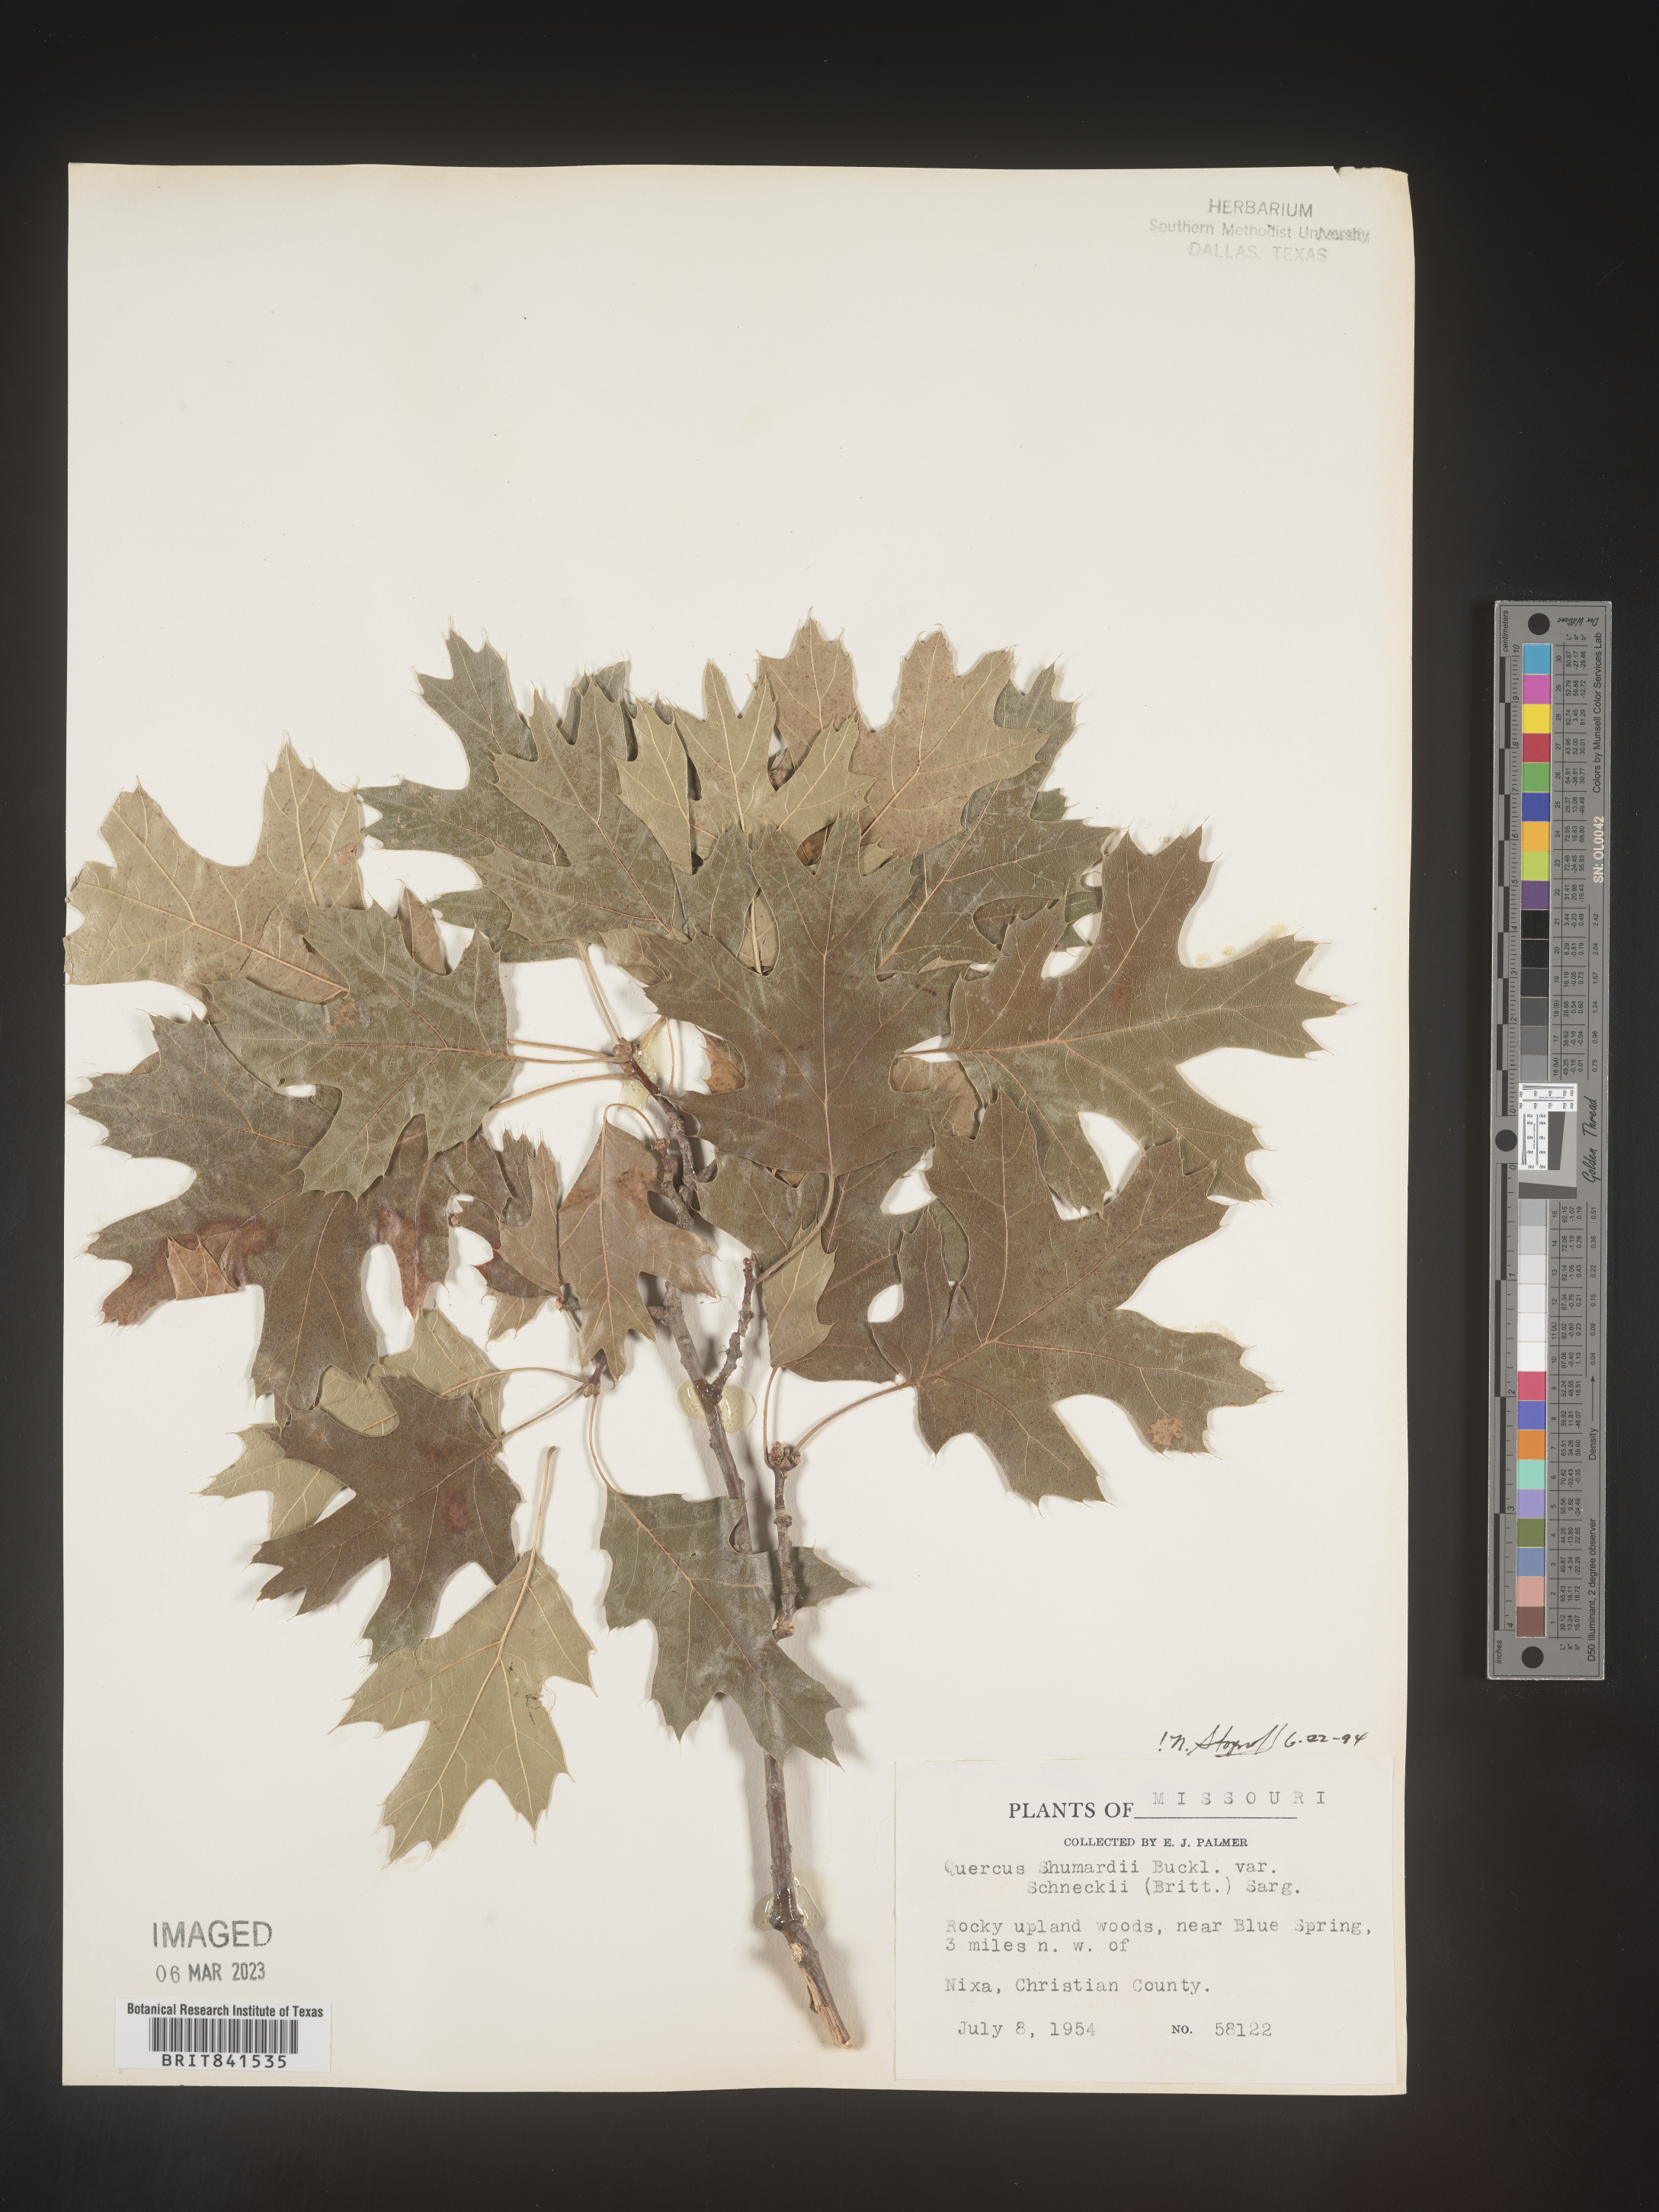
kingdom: Plantae
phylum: Tracheophyta
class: Magnoliopsida
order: Fagales
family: Fagaceae
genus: Quercus
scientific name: Quercus shumardii
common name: Shumard oak
